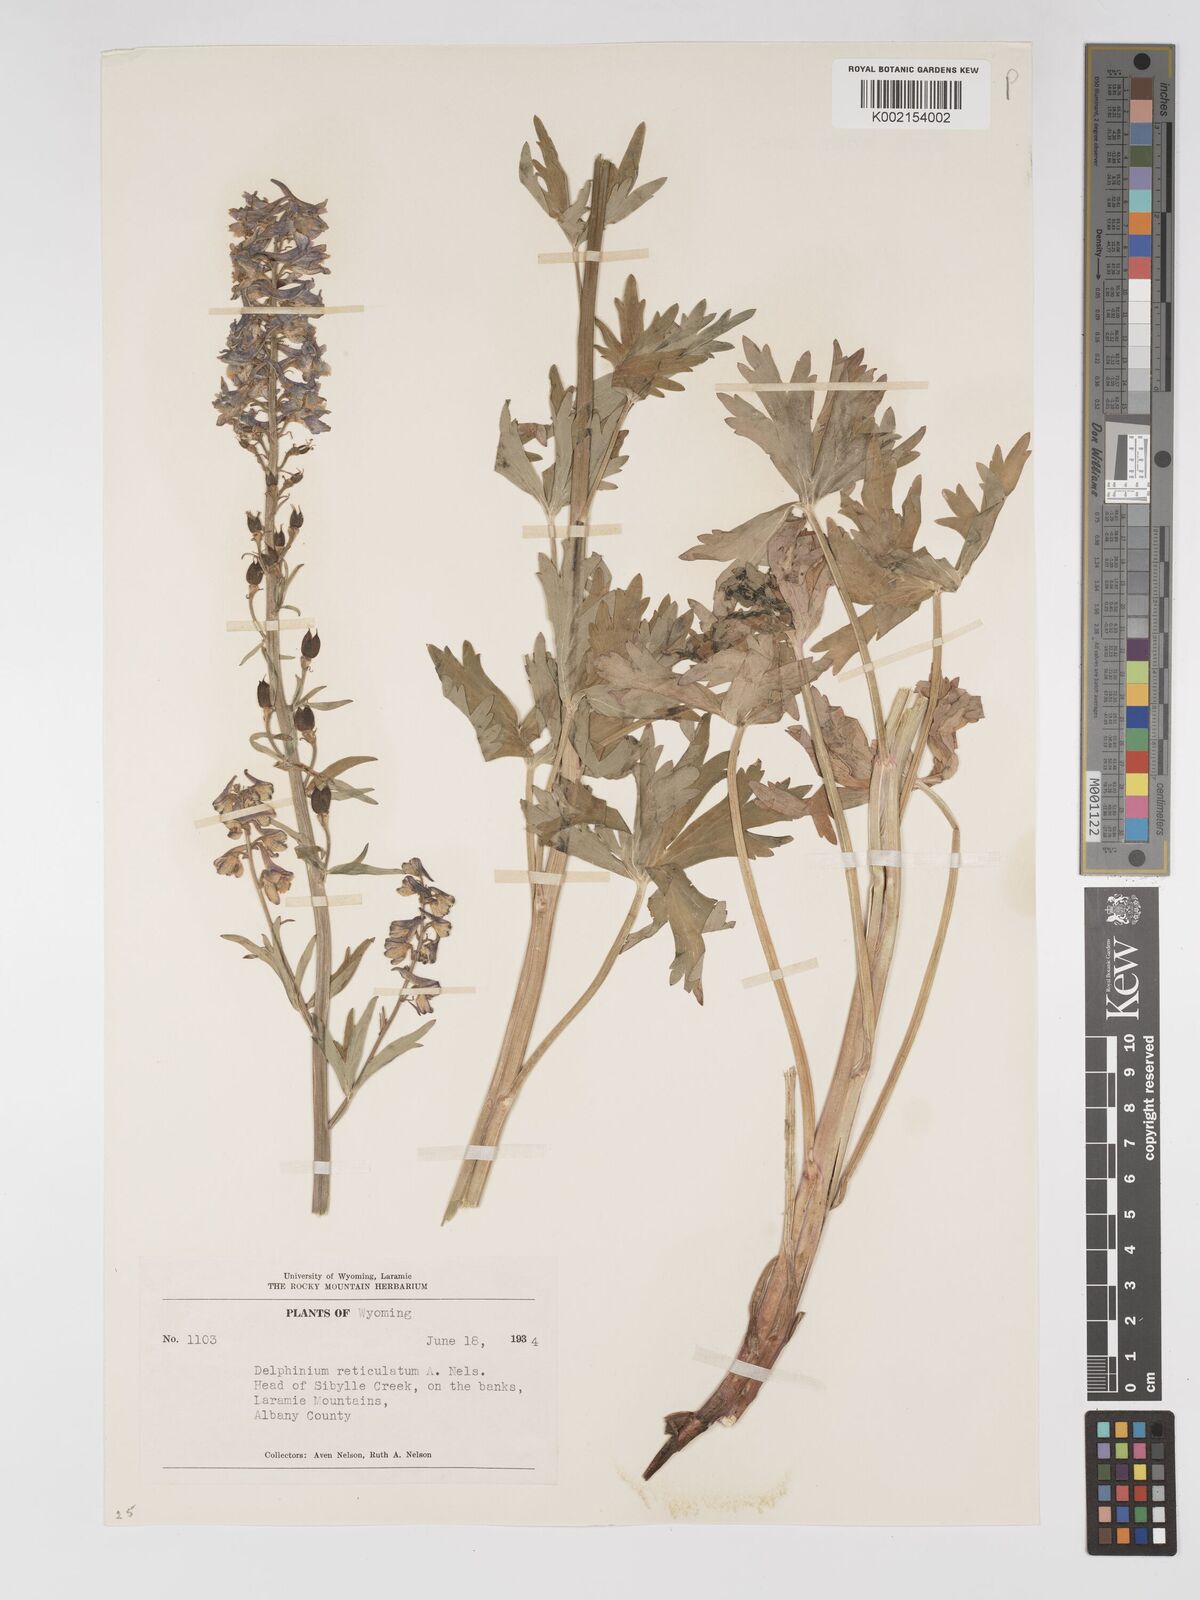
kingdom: Plantae
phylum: Tracheophyta
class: Magnoliopsida
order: Ranunculales
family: Ranunculaceae
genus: Delphinium
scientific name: Delphinium occidentale
